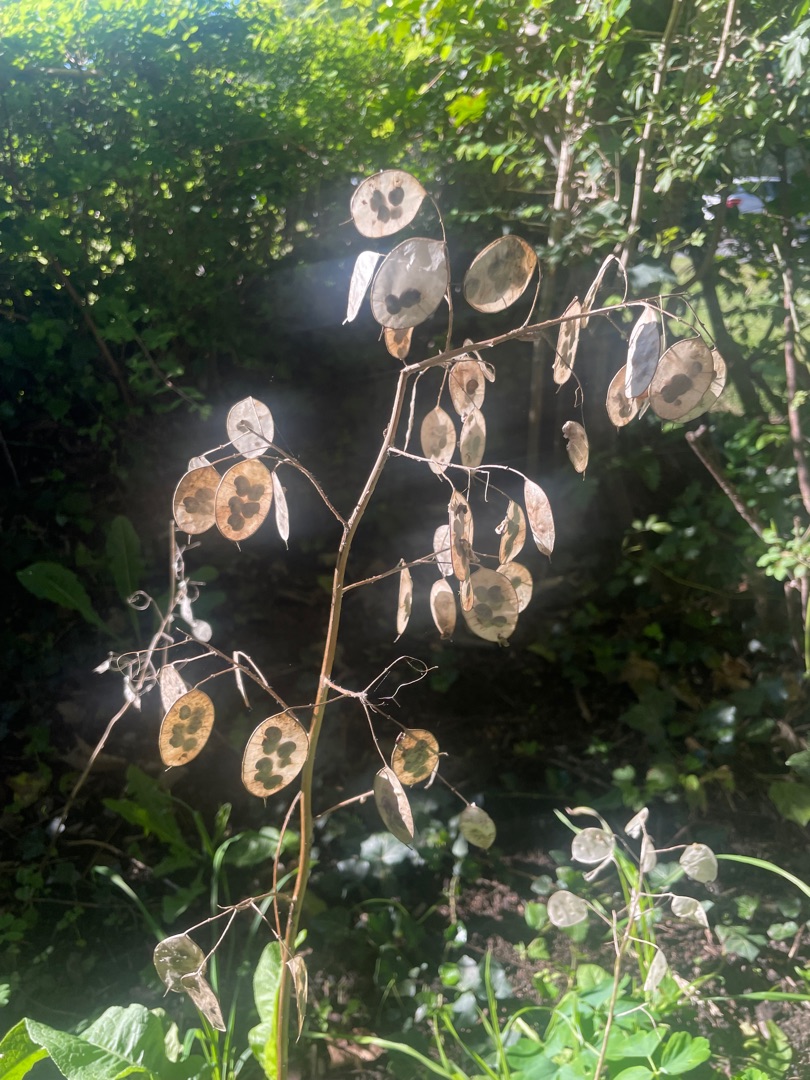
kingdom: Plantae
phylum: Tracheophyta
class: Magnoliopsida
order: Brassicales
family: Brassicaceae
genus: Lunaria
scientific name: Lunaria annua
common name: Judaspenge
